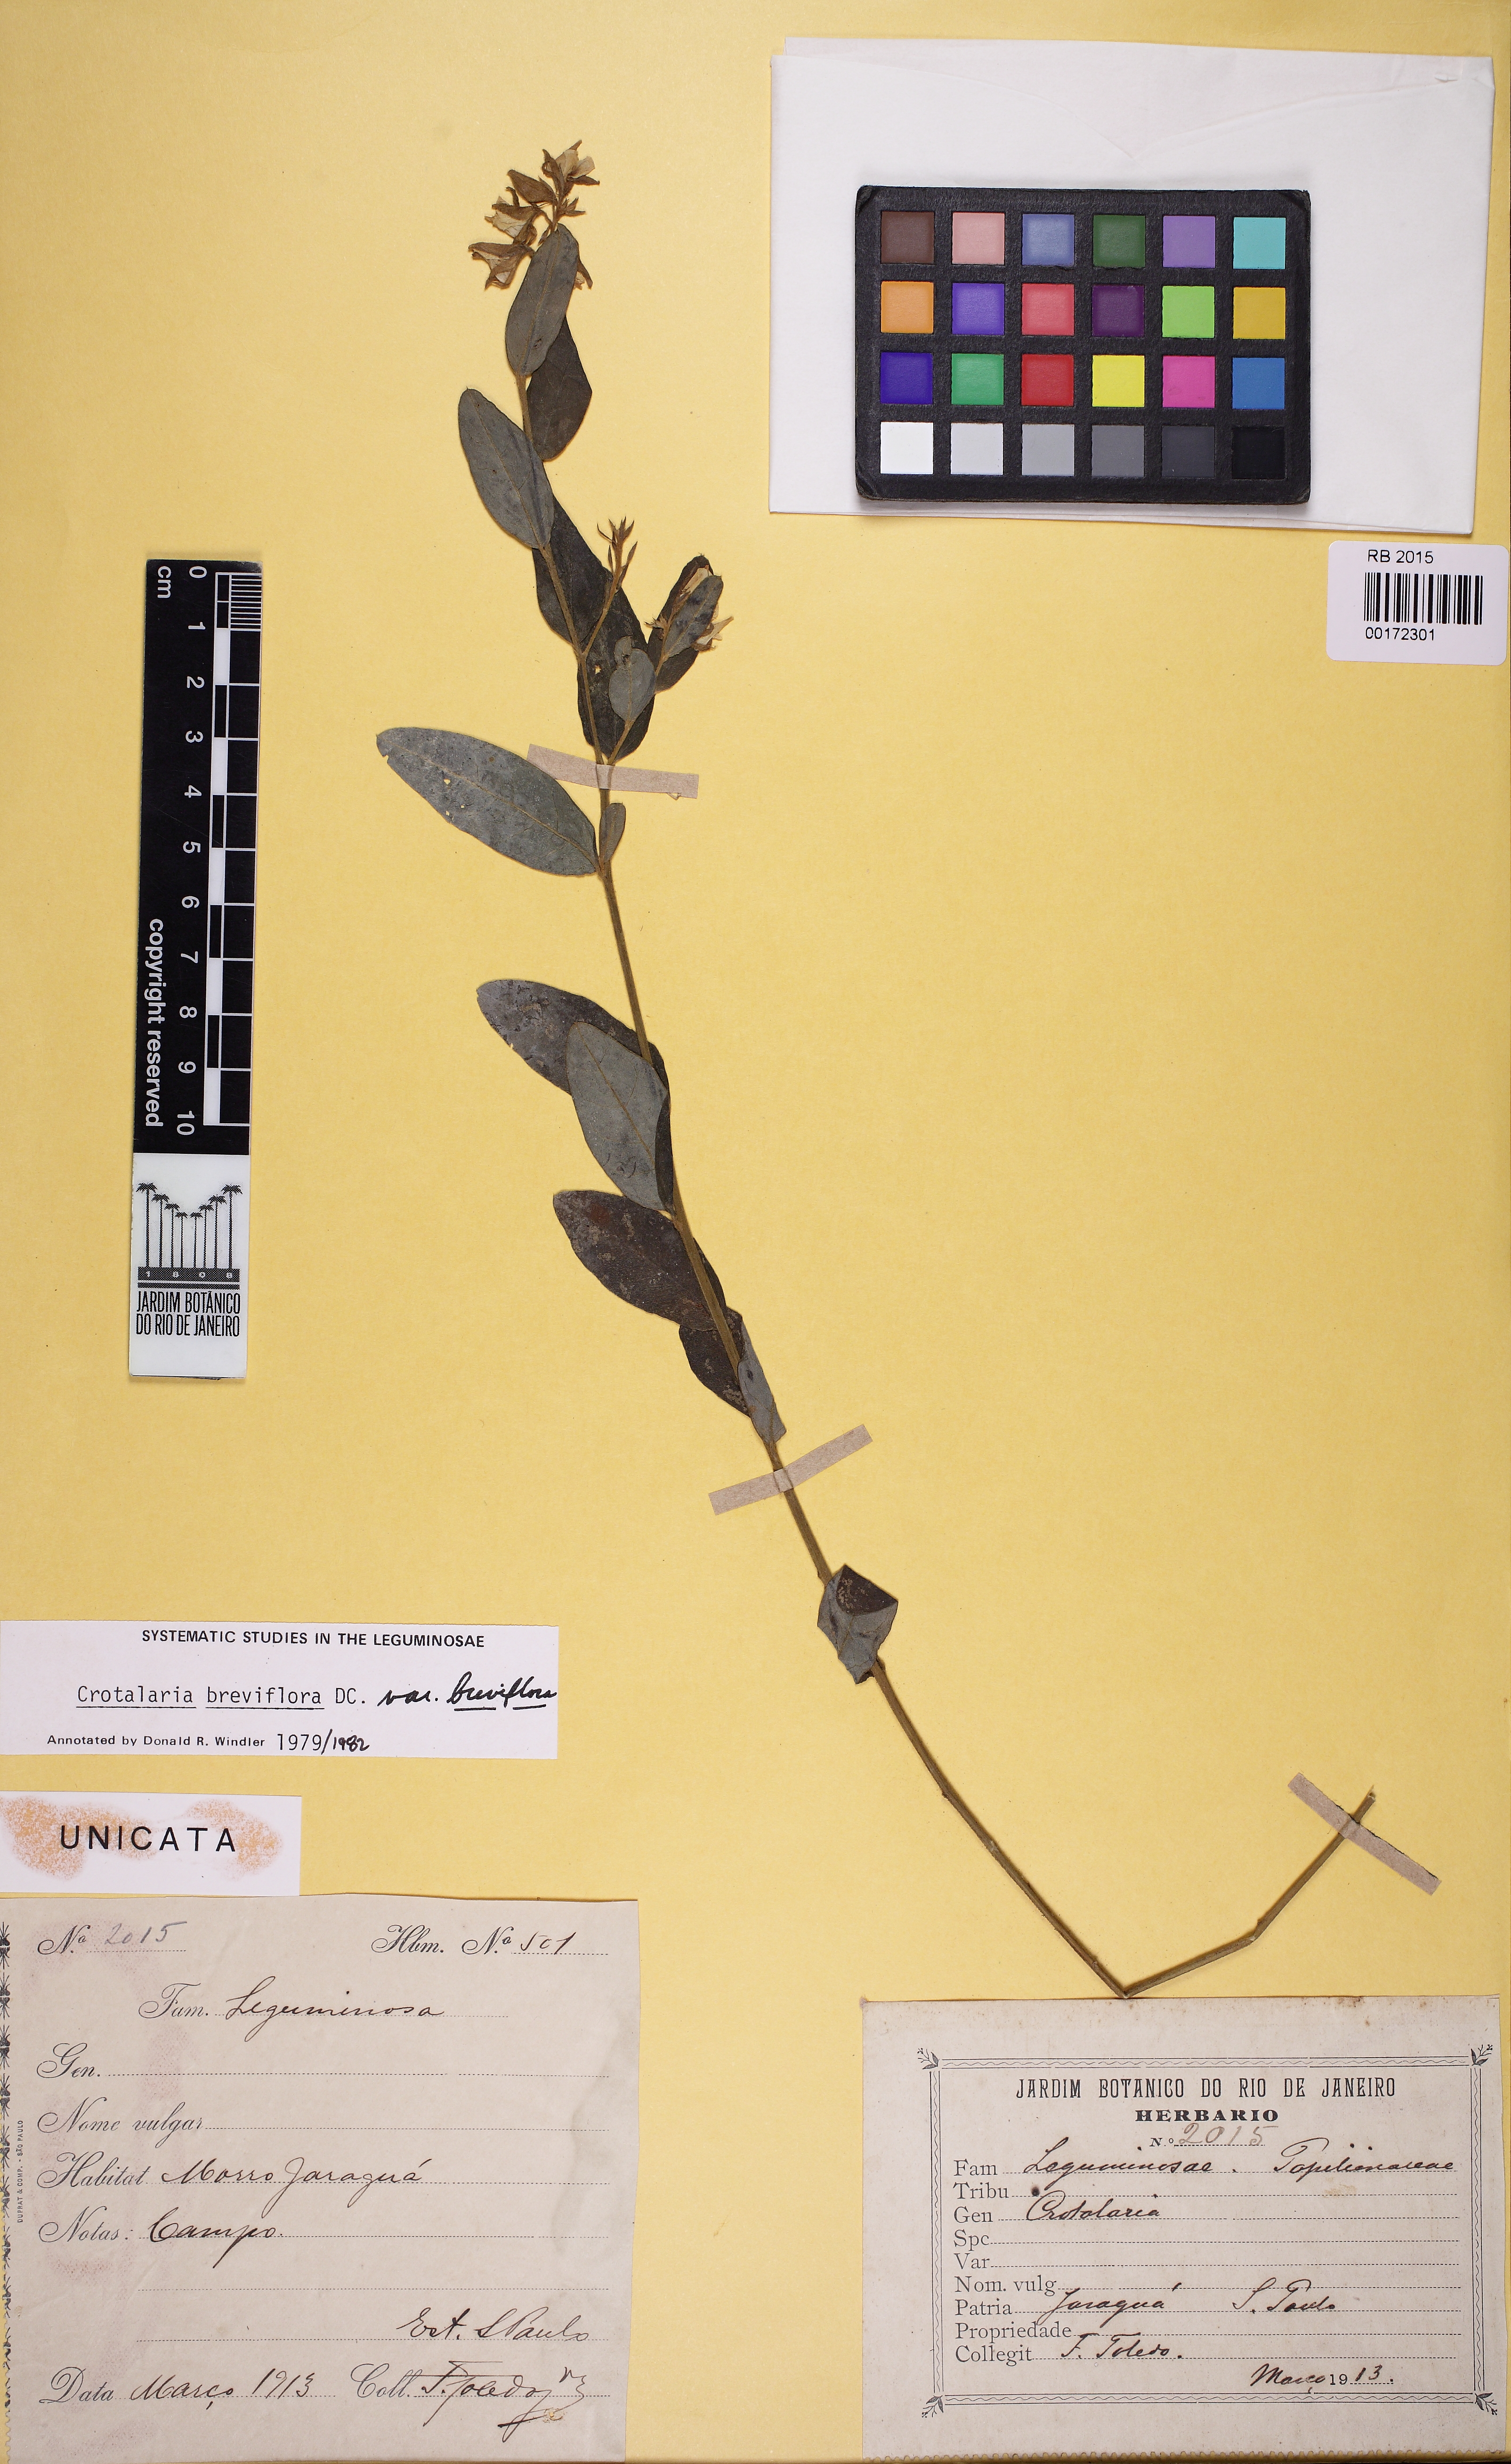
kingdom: Plantae
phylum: Tracheophyta
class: Magnoliopsida
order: Fabales
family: Fabaceae
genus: Crotalaria
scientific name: Crotalaria breviflora
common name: Short-flower crotalaria
